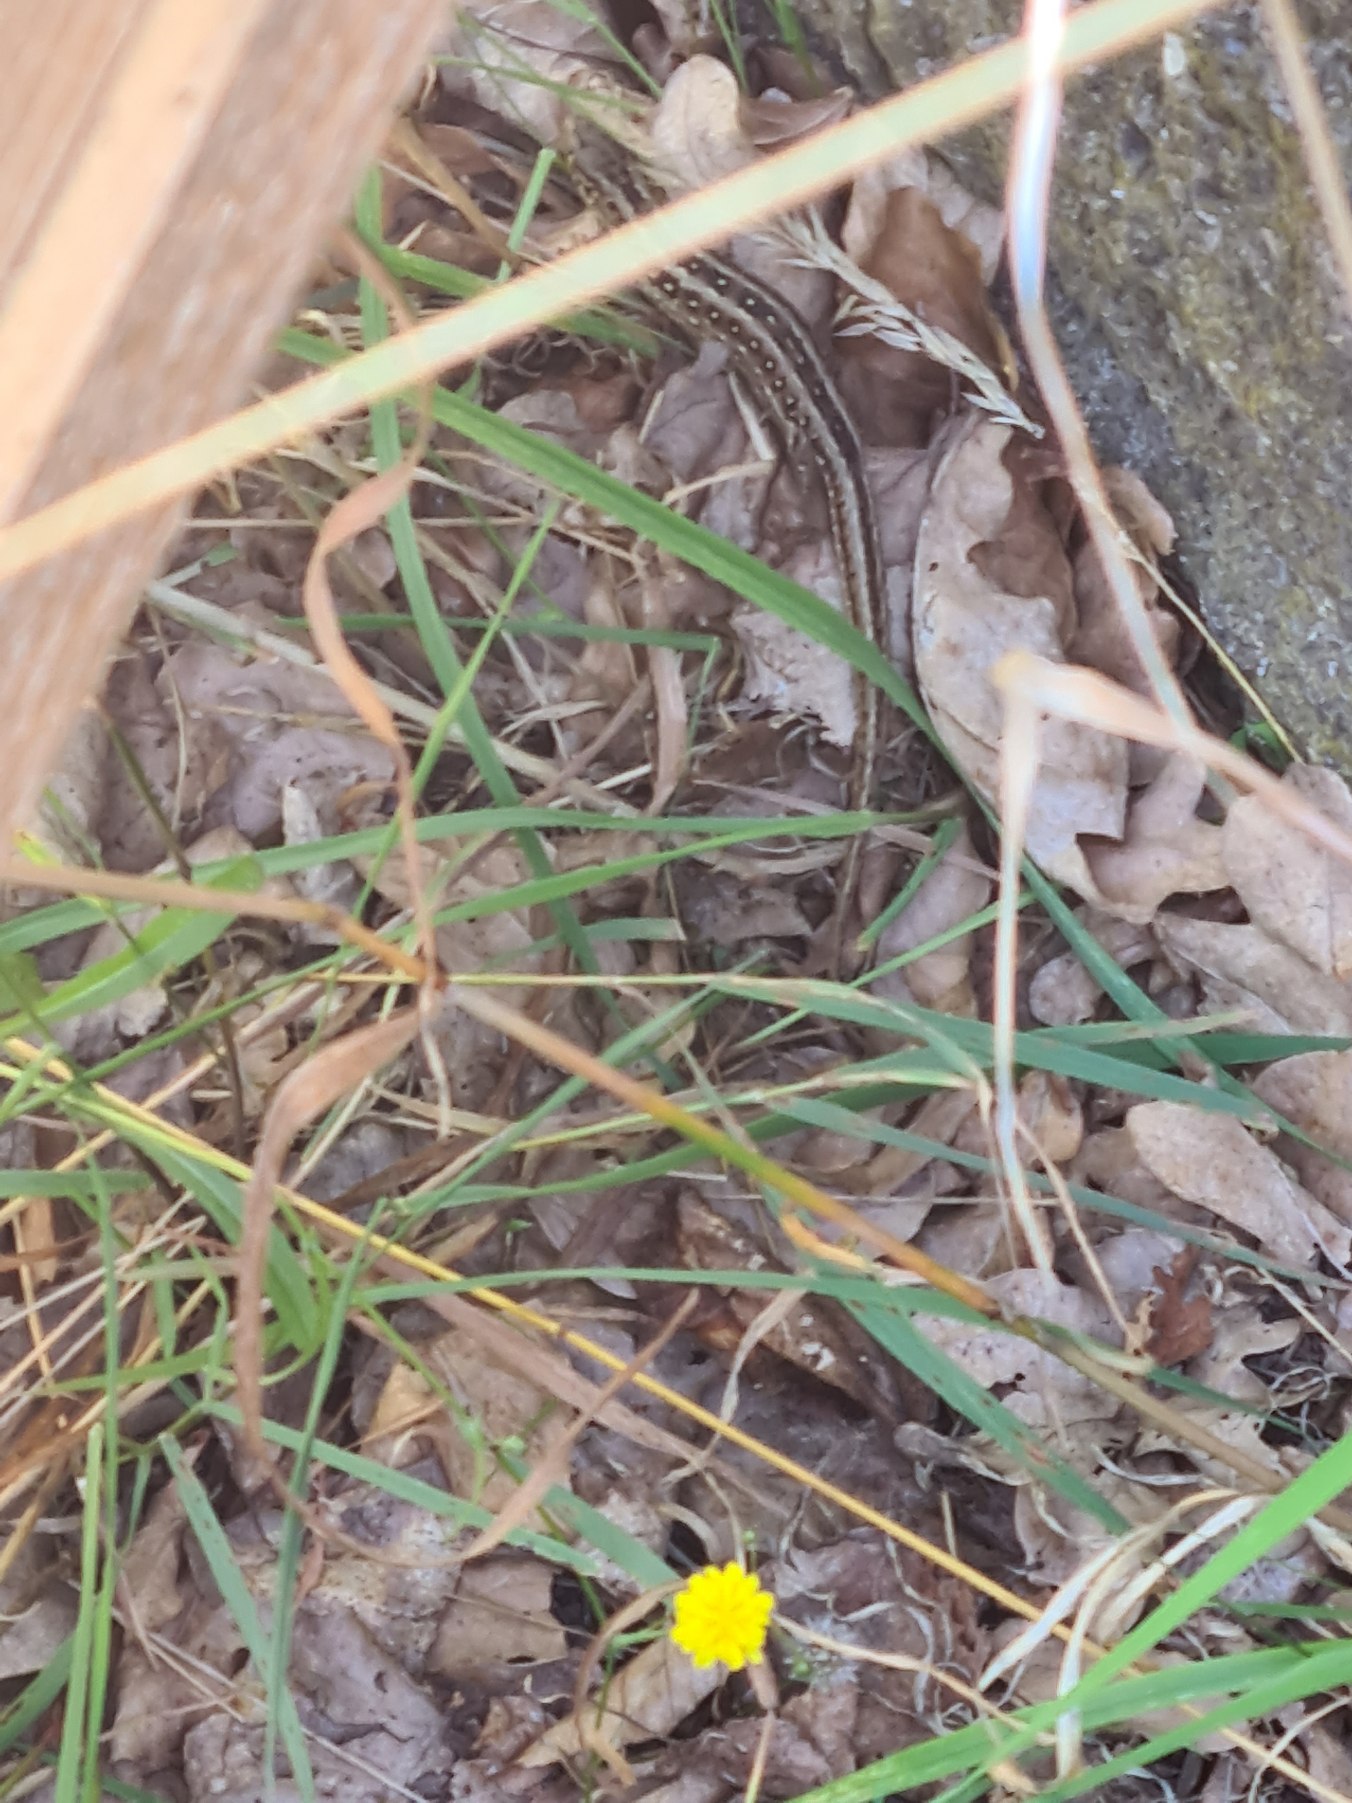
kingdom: Animalia
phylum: Chordata
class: Squamata
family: Lacertidae
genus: Lacerta
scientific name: Lacerta agilis
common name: Markfirben
